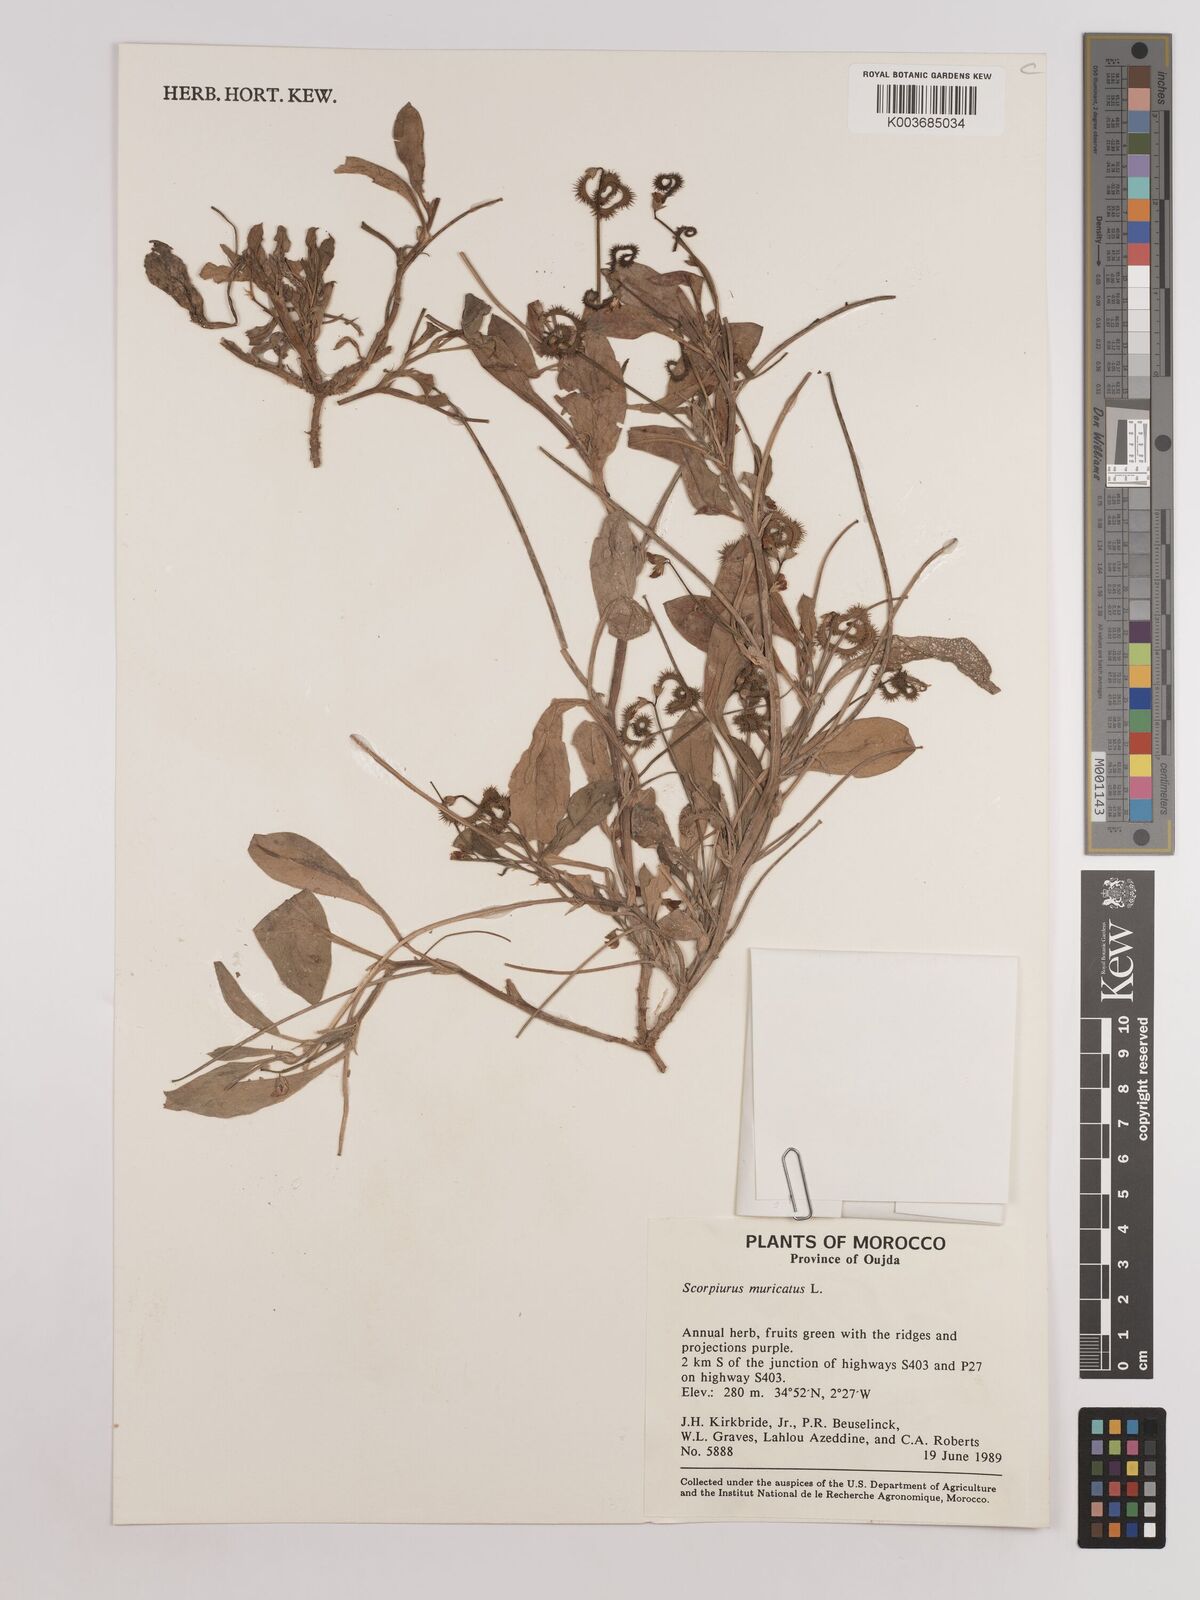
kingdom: Plantae
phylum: Tracheophyta
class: Magnoliopsida
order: Fabales
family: Fabaceae
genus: Scorpiurus
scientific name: Scorpiurus muricatus
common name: Caterpillar-plant
